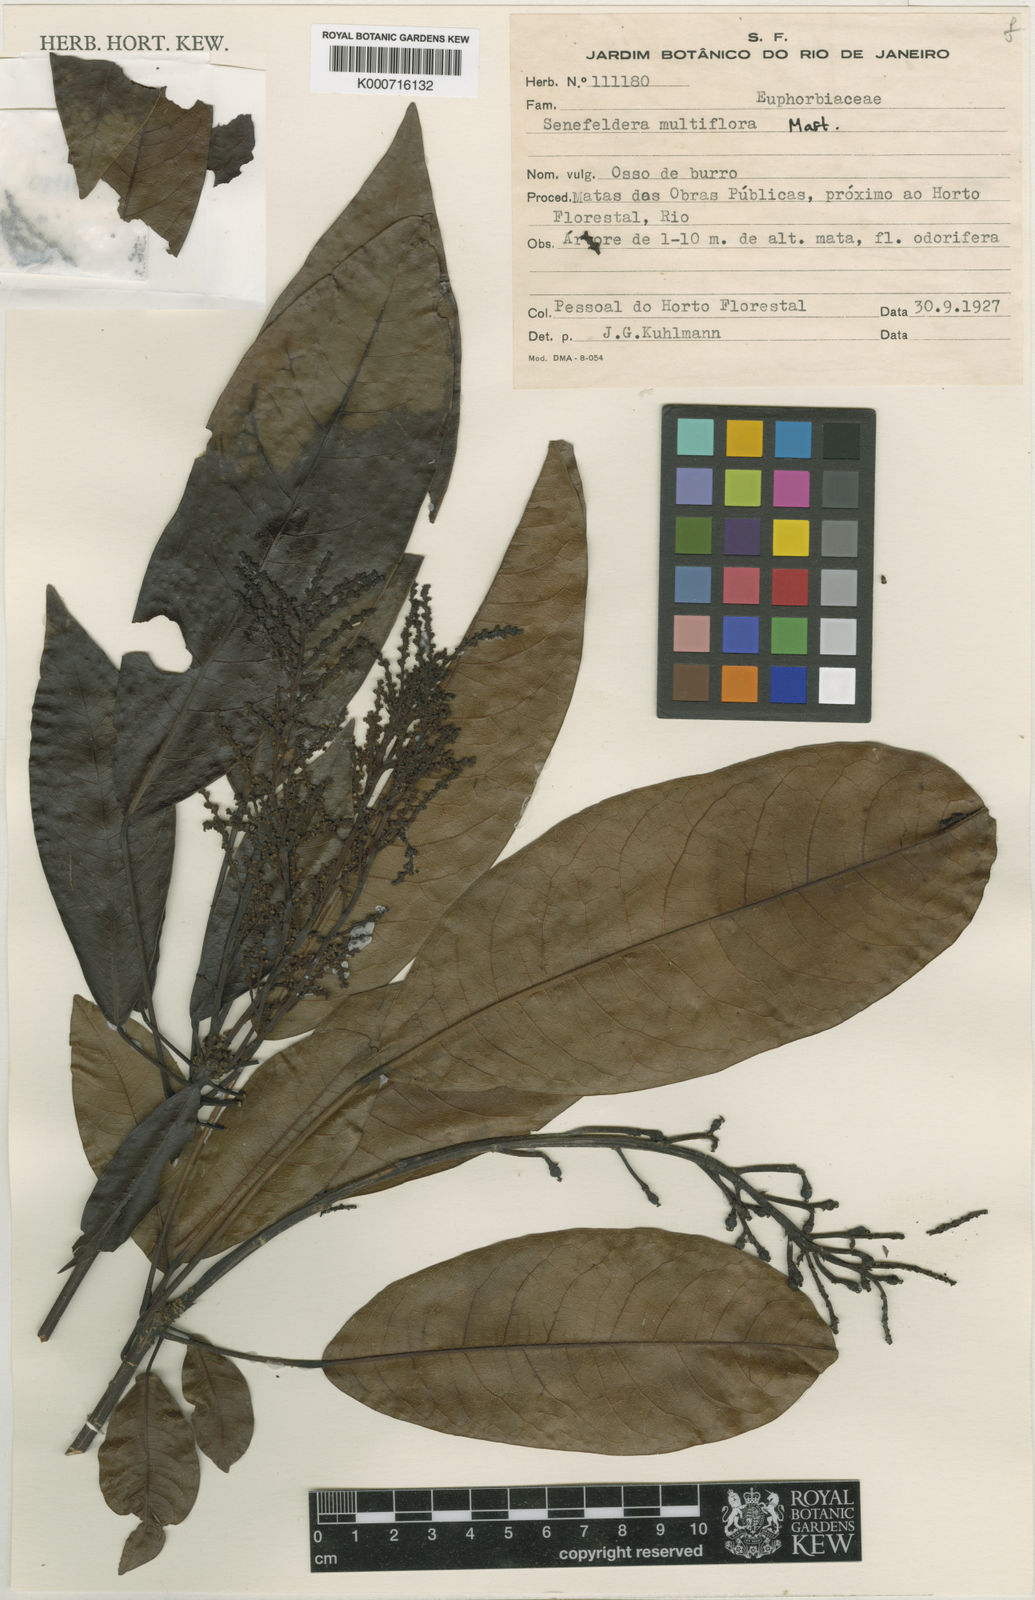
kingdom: Plantae
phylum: Tracheophyta
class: Magnoliopsida
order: Malpighiales
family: Euphorbiaceae
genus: Senefeldera
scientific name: Senefeldera verticillata
